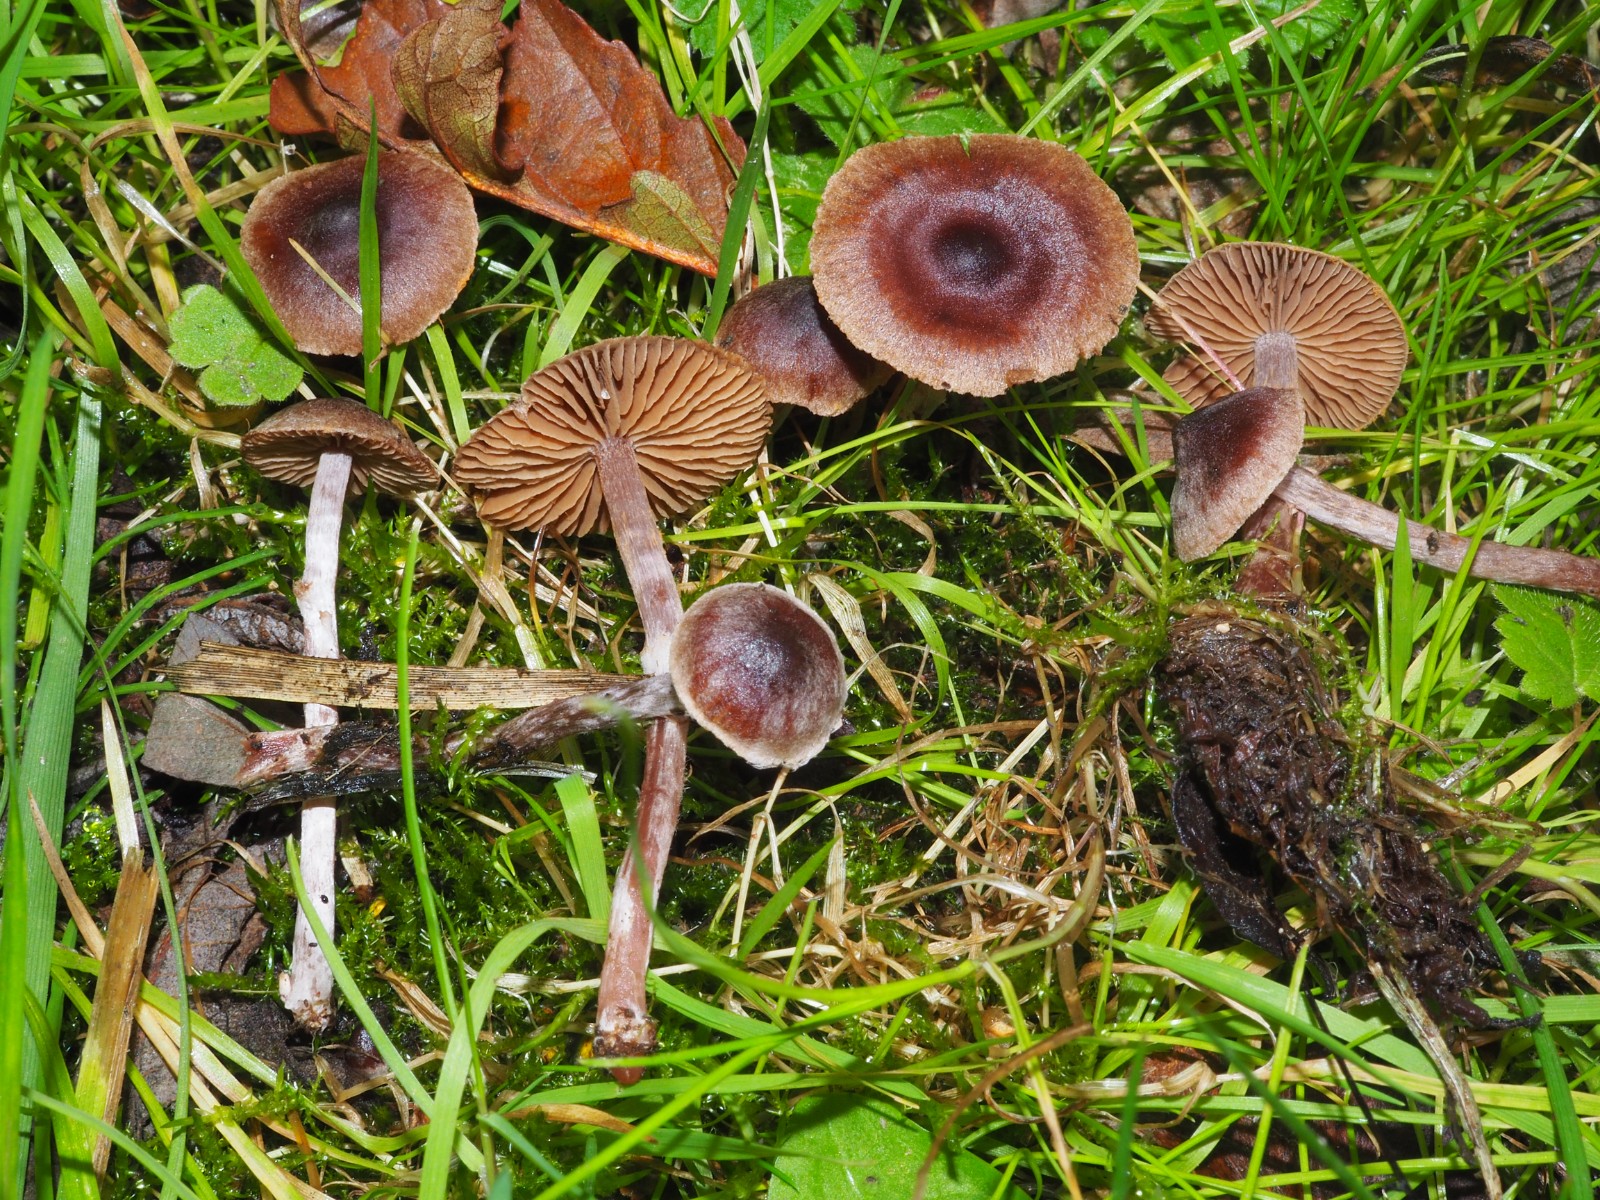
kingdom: Fungi
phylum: Basidiomycota
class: Agaricomycetes
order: Agaricales
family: Cortinariaceae
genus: Cortinarius
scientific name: Cortinarius
